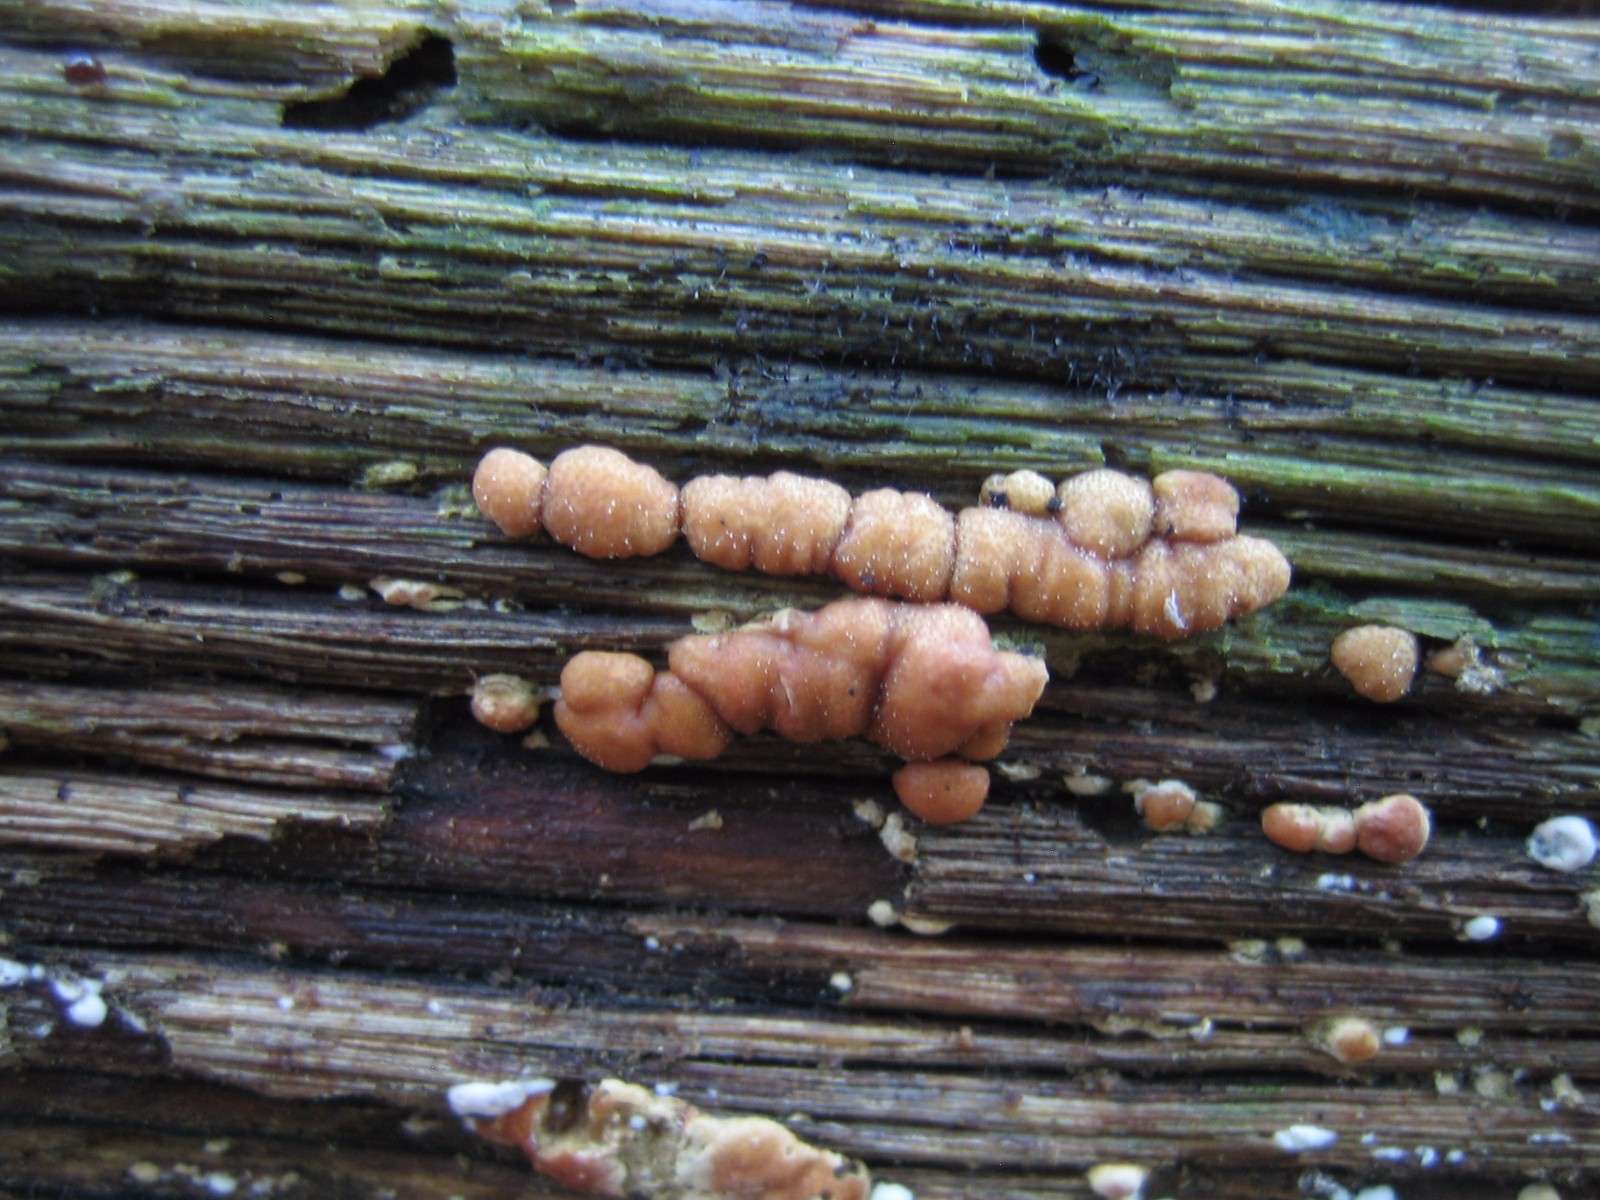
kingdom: Fungi
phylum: Ascomycota
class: Sordariomycetes
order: Hypocreales
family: Hypocreaceae
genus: Trichoderma
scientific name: Trichoderma europaeum
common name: rosabrun kødkerne
